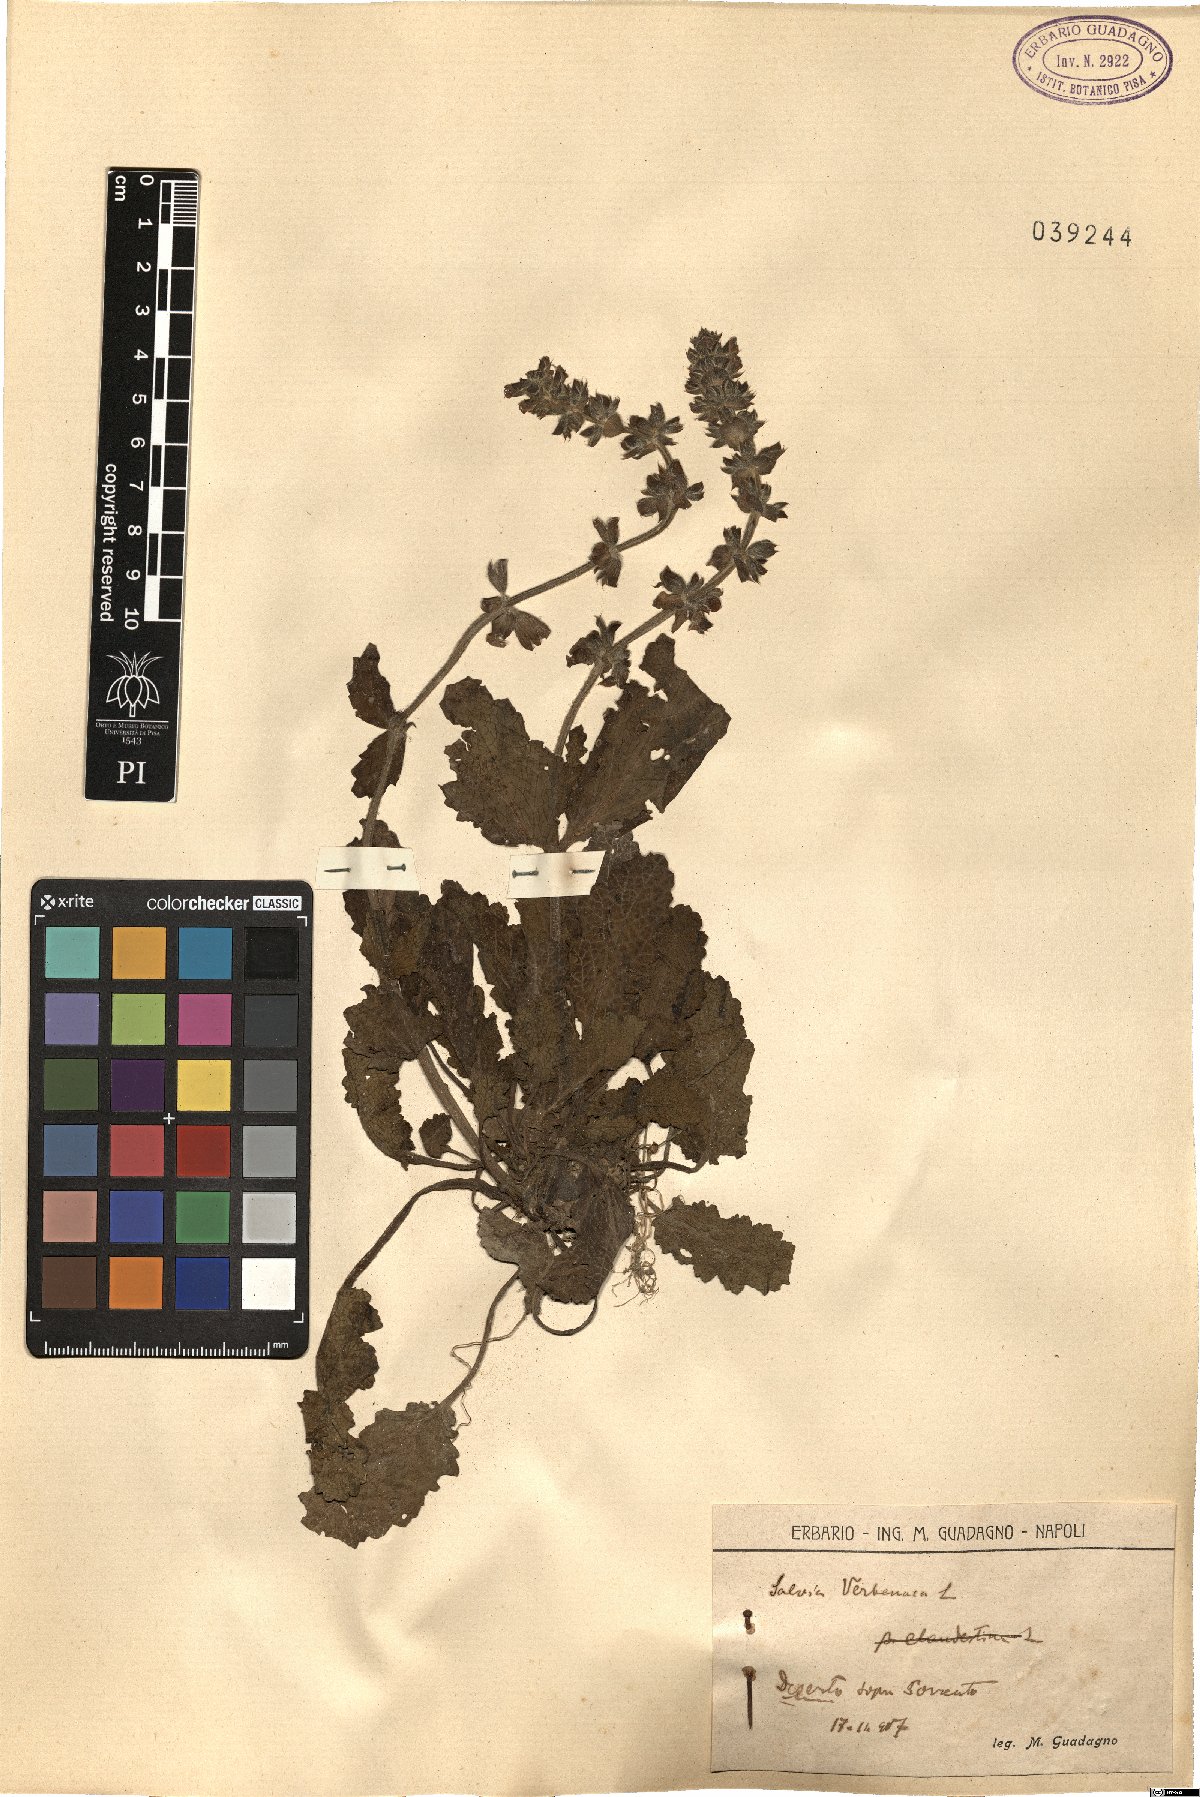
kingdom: Plantae
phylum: Tracheophyta
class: Magnoliopsida
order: Lamiales
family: Lamiaceae
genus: Salvia
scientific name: Salvia verbenaca
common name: Wild clary
